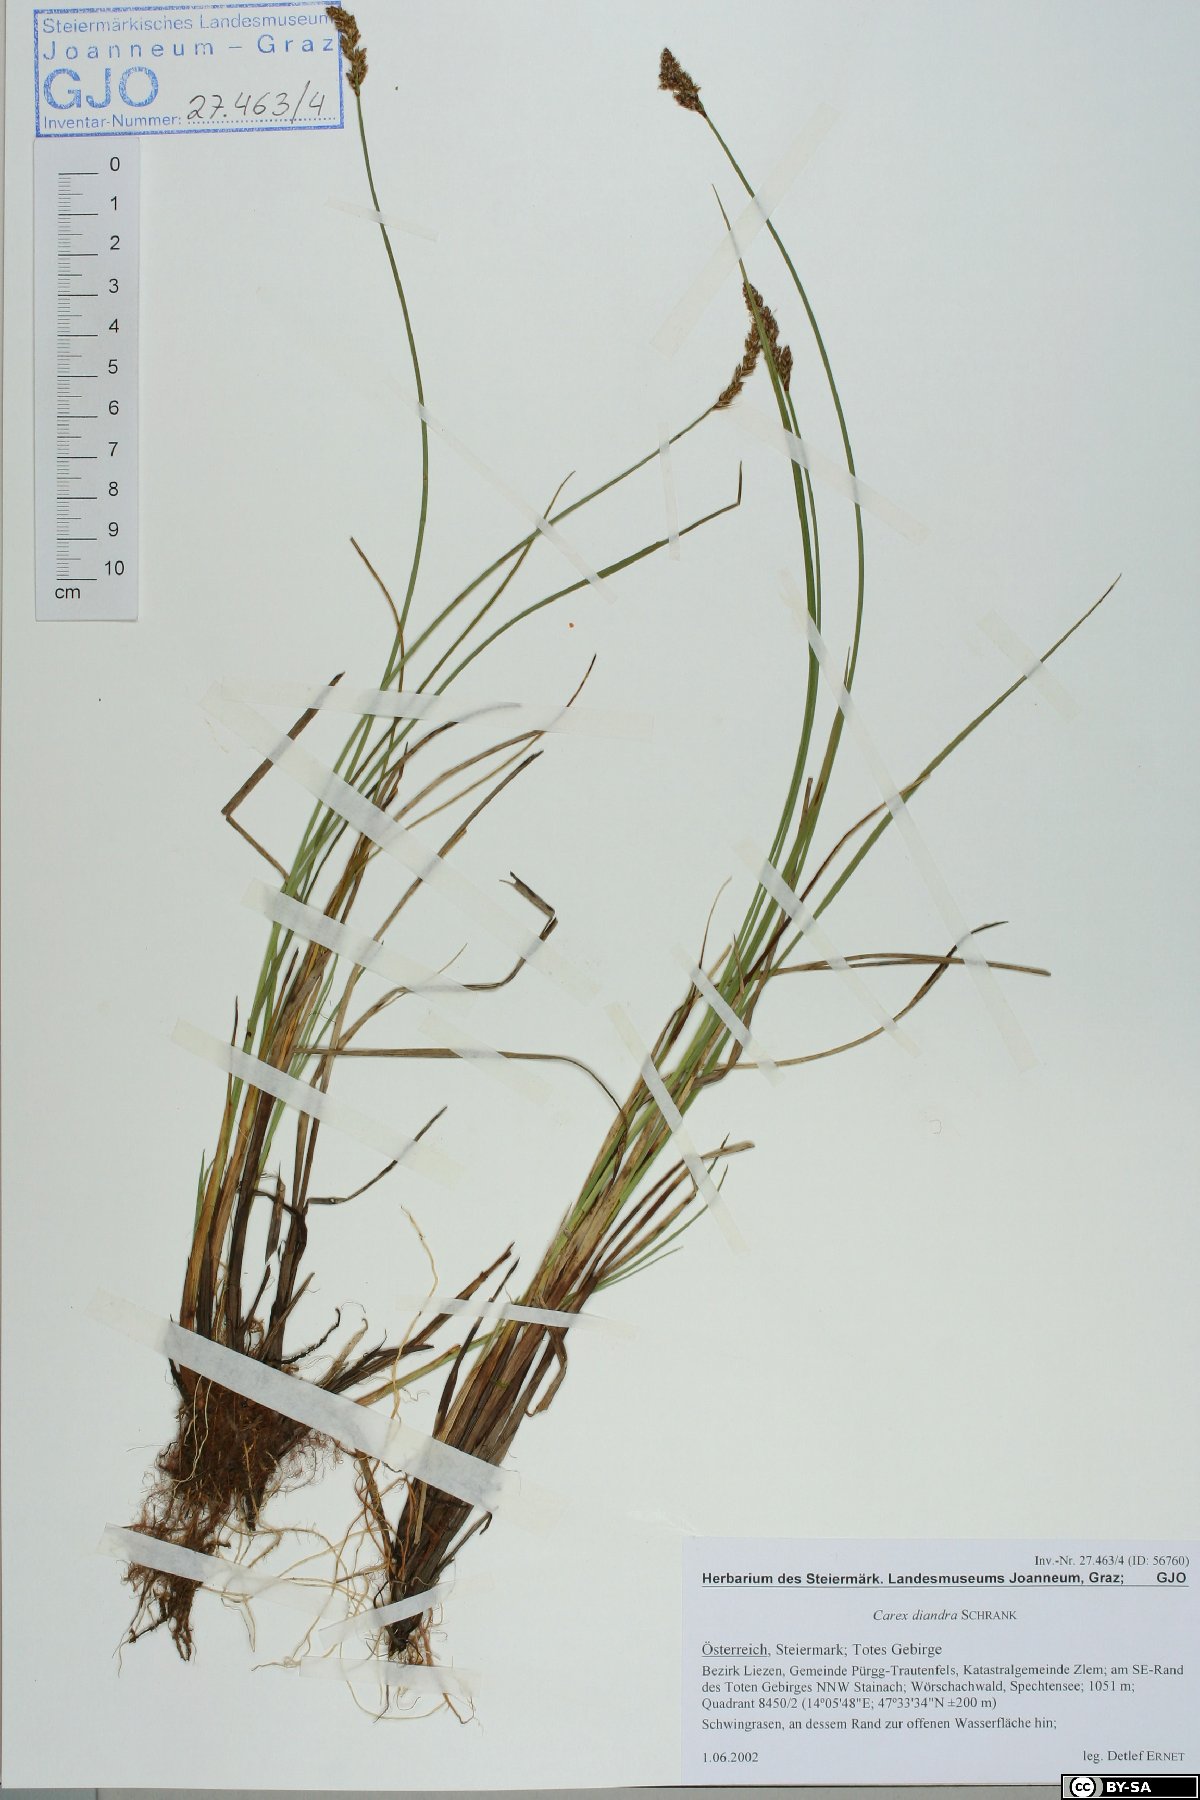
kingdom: Plantae
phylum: Tracheophyta
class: Liliopsida
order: Poales
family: Cyperaceae
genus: Carex
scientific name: Carex diandra
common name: Lesser tussock-sedge
